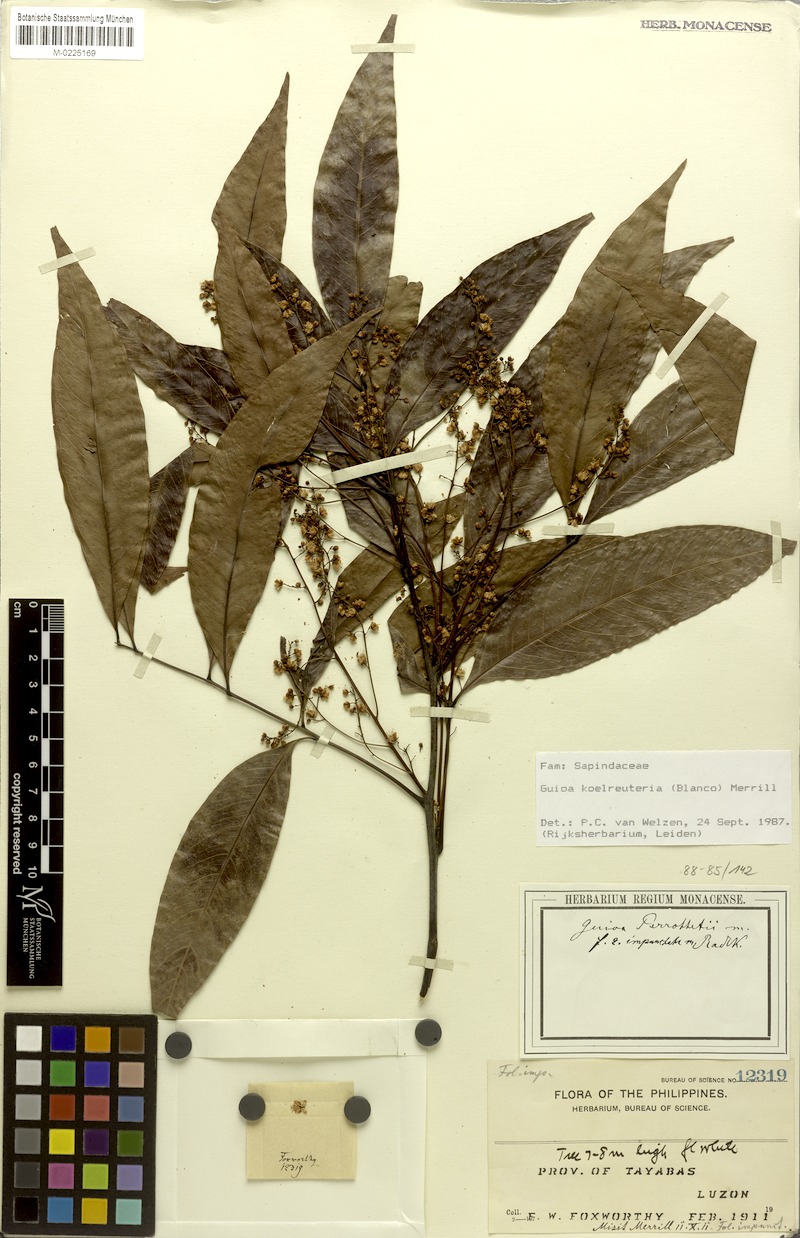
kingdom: Plantae
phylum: Tracheophyta
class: Magnoliopsida
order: Sapindales
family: Sapindaceae
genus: Guioa
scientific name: Guioa koelreuteria
